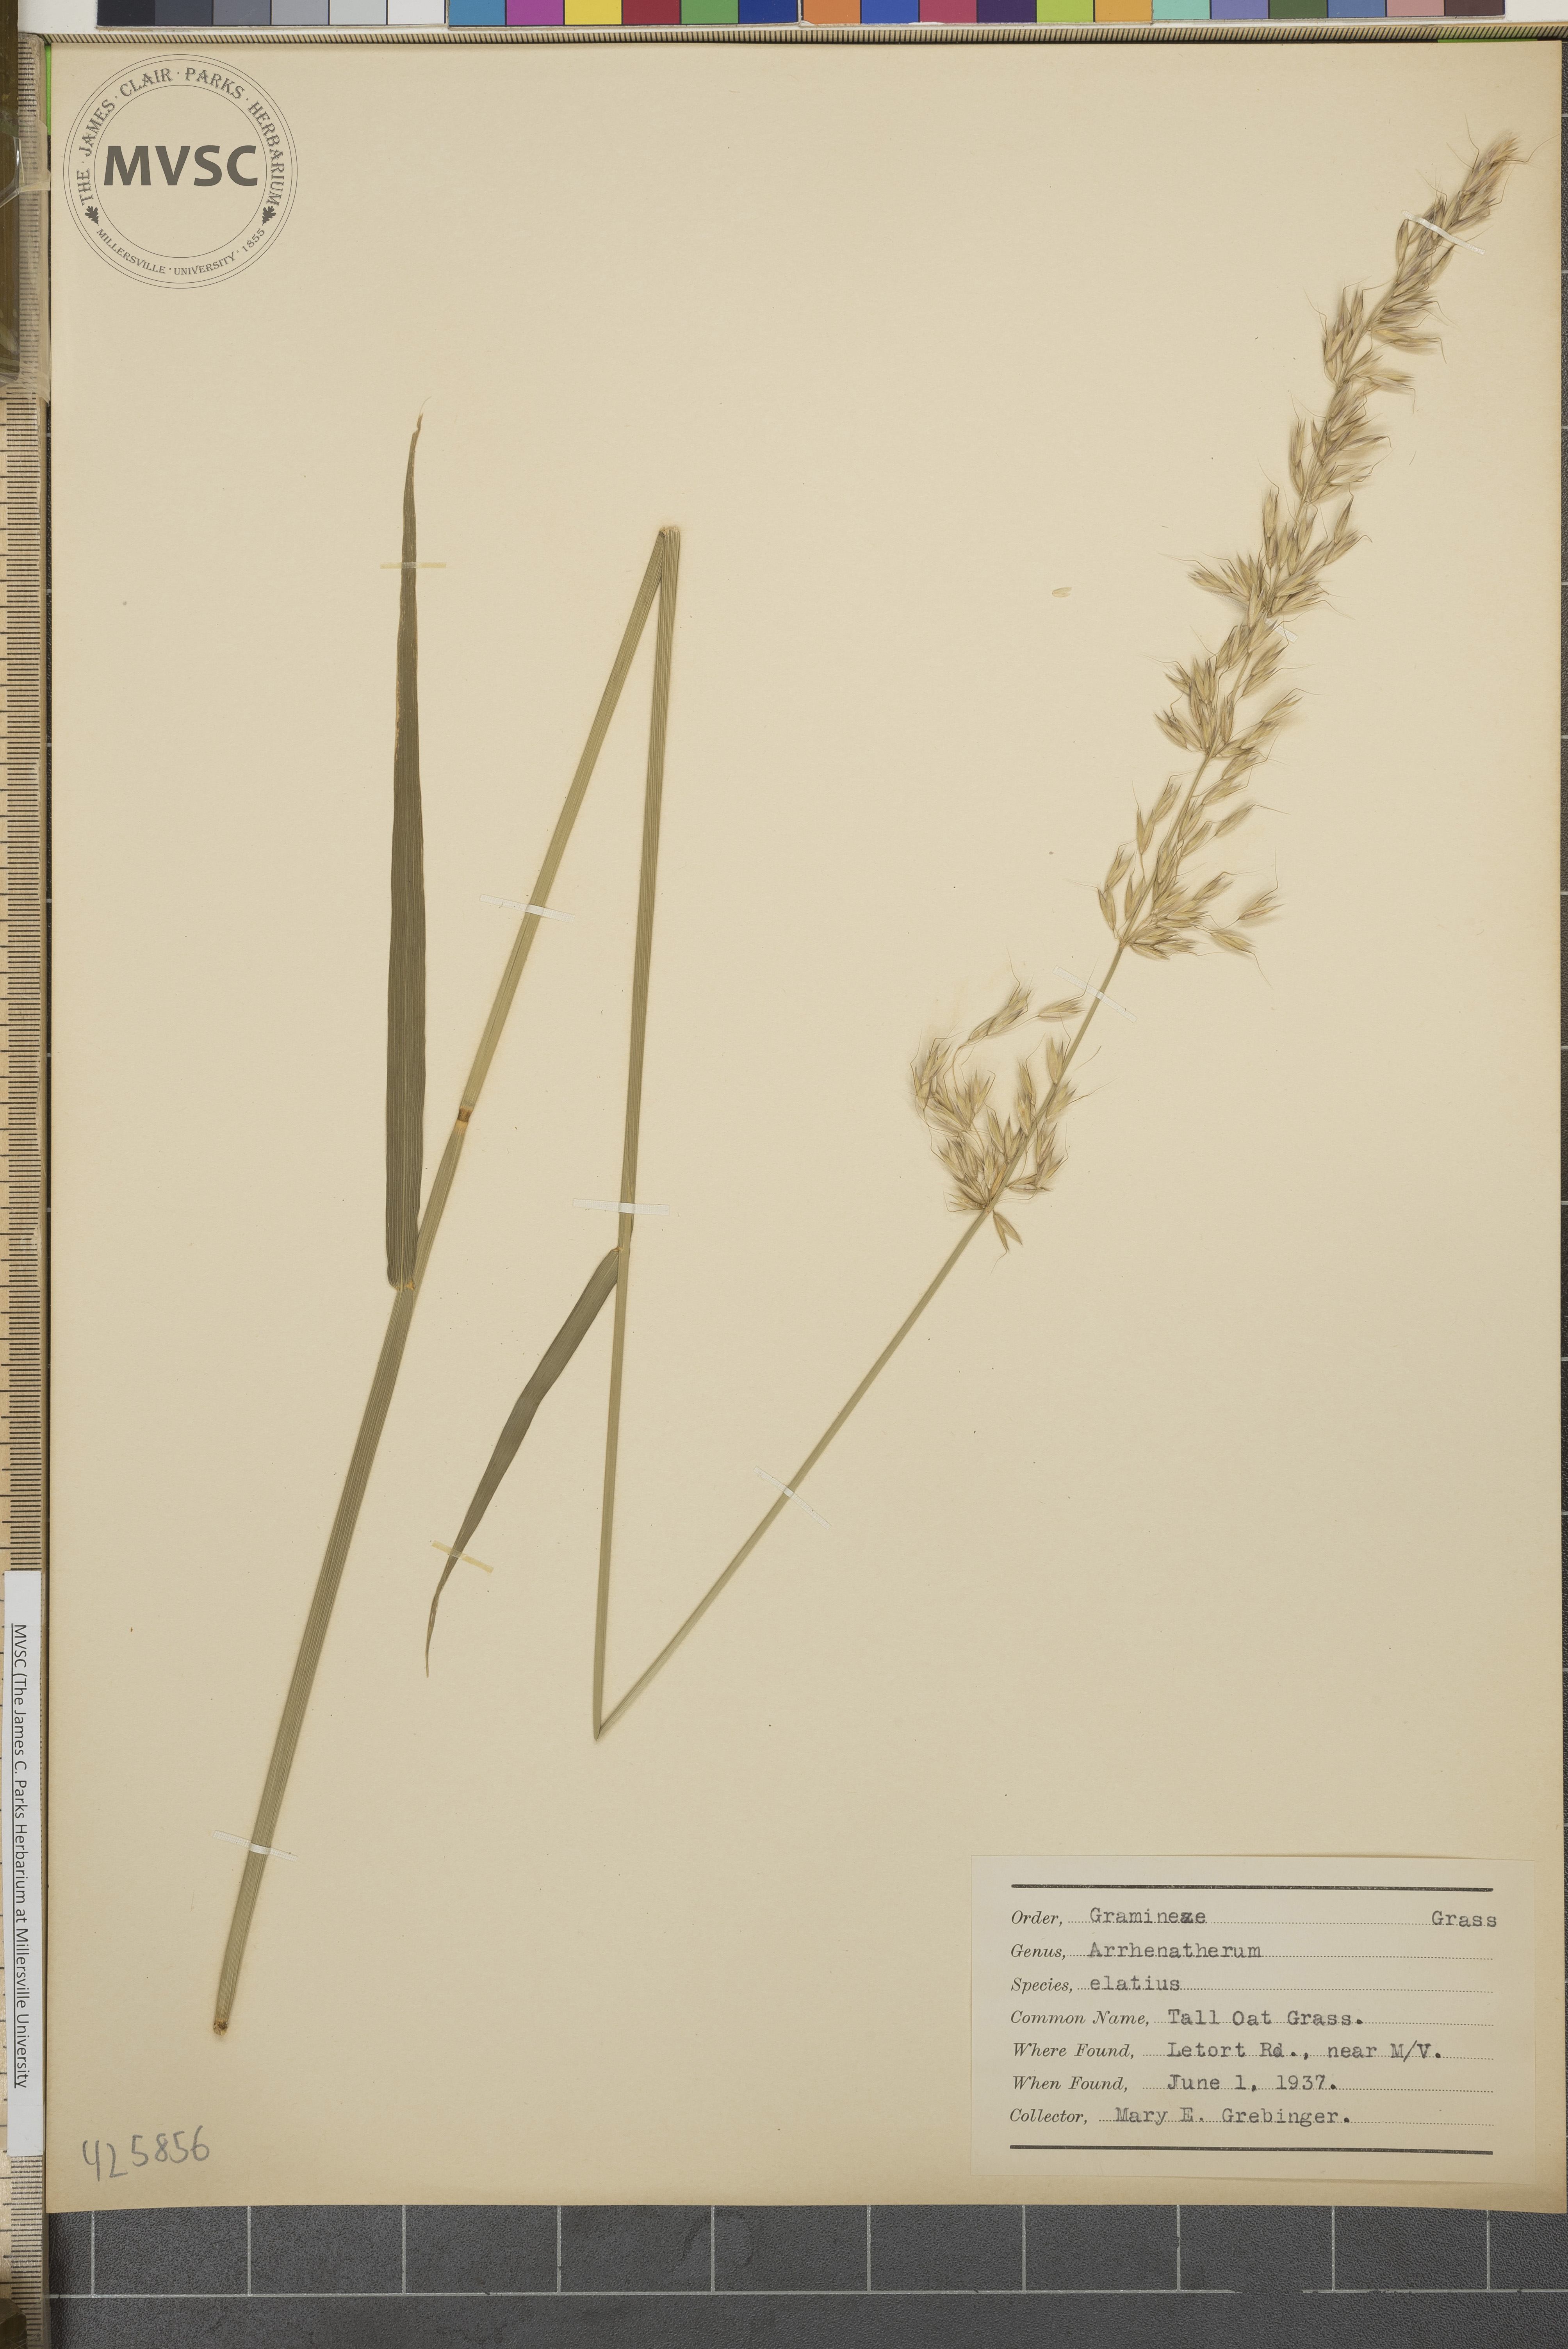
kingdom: Plantae
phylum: Tracheophyta
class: Liliopsida
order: Poales
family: Poaceae
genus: Arrhenatherum
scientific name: Arrhenatherum elatius
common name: Tall oat grass
